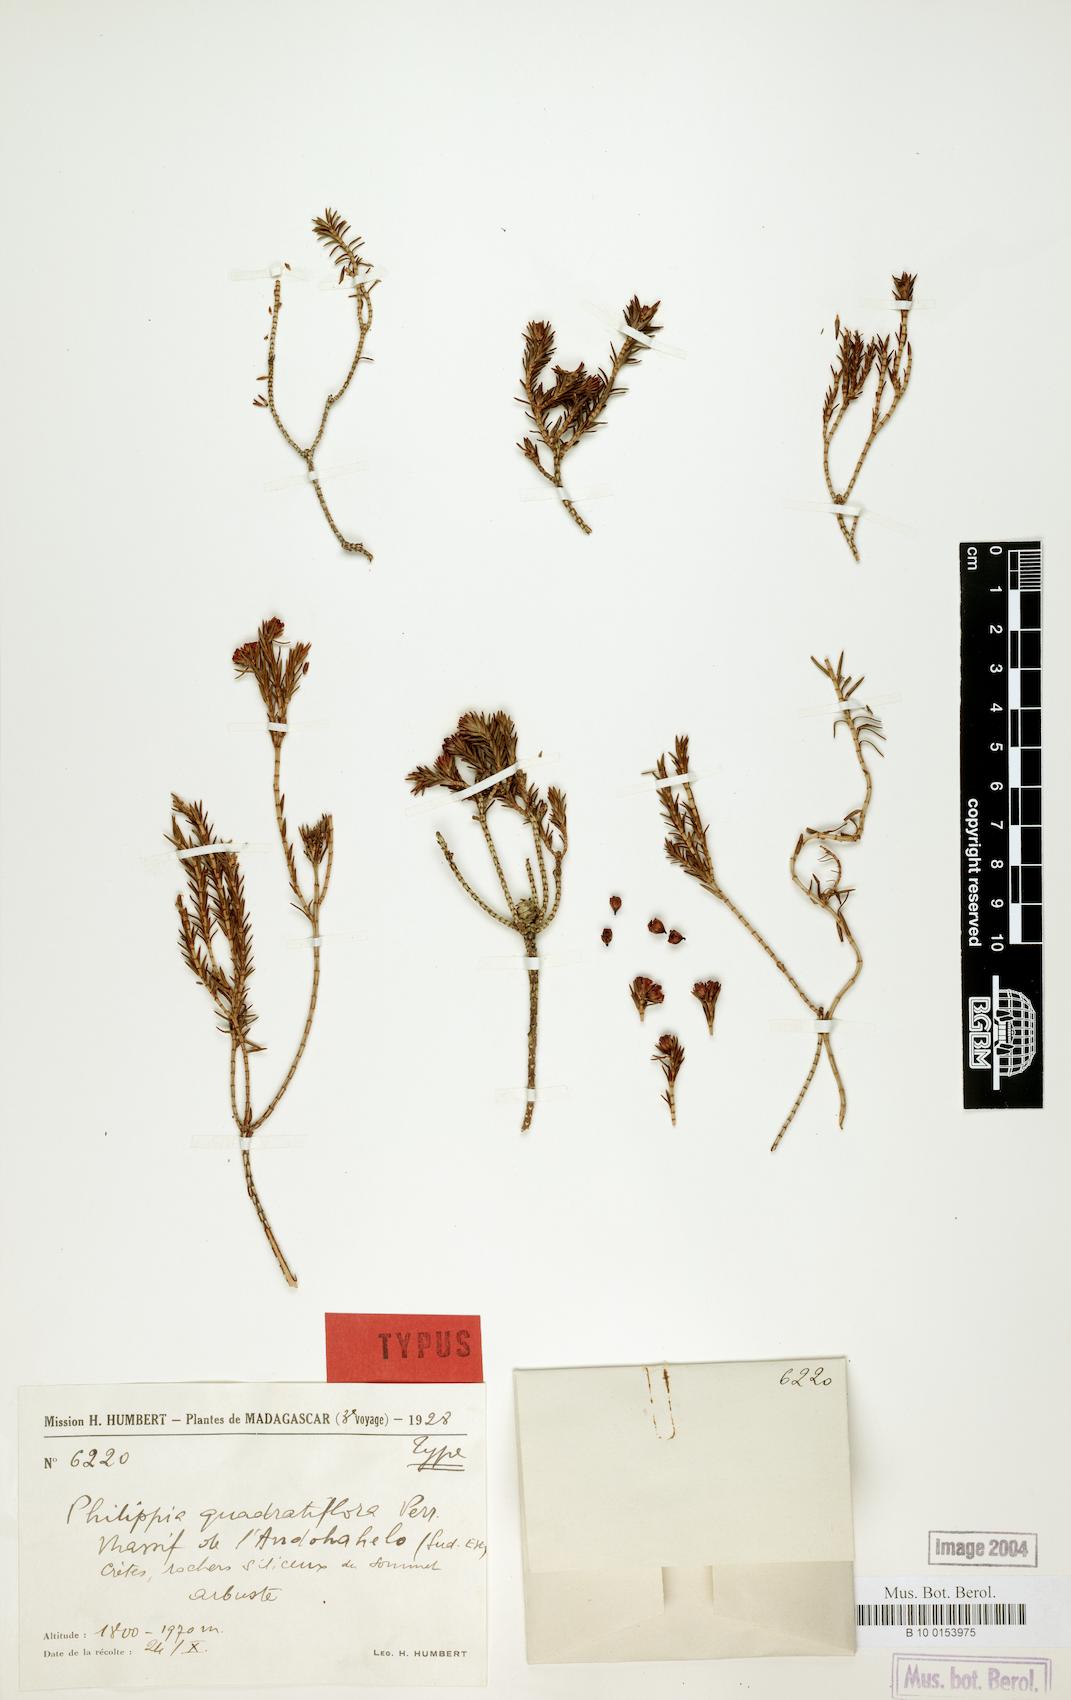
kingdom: Plantae
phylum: Tracheophyta
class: Magnoliopsida
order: Ericales
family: Ericaceae
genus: Erica
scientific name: Erica quadratiflora
